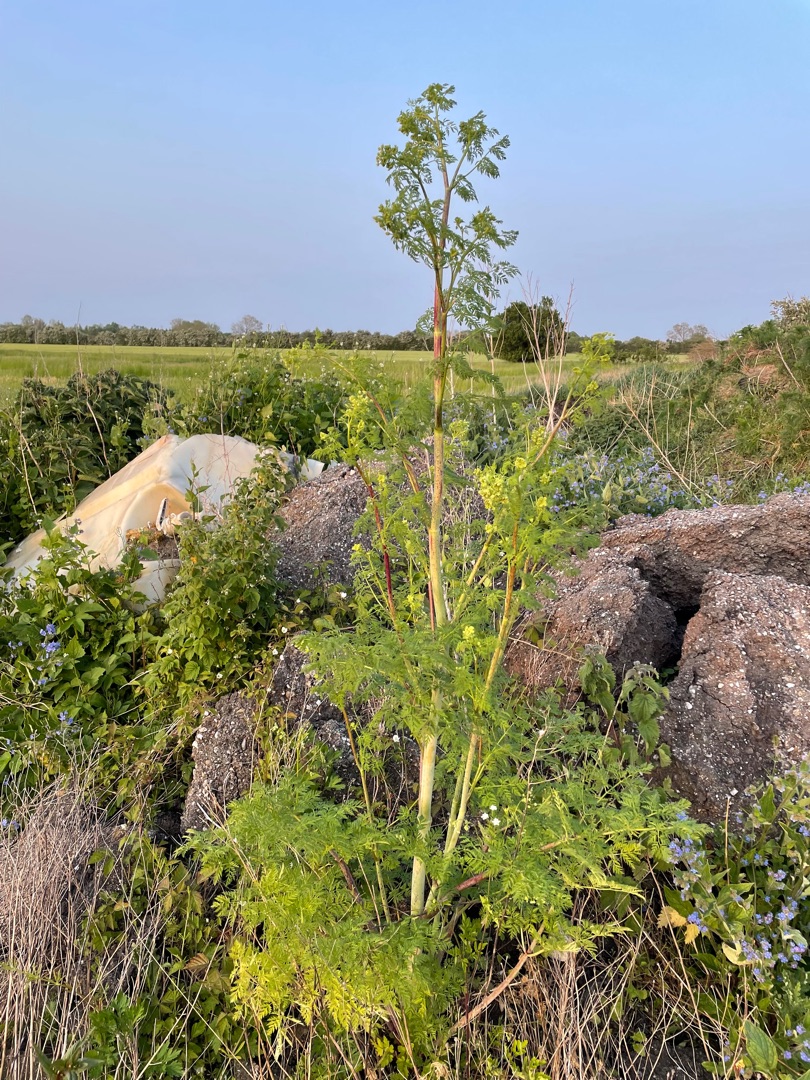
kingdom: Plantae
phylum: Tracheophyta
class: Magnoliopsida
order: Apiales
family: Apiaceae
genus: Conium
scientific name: Conium maculatum
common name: Skarntyde
